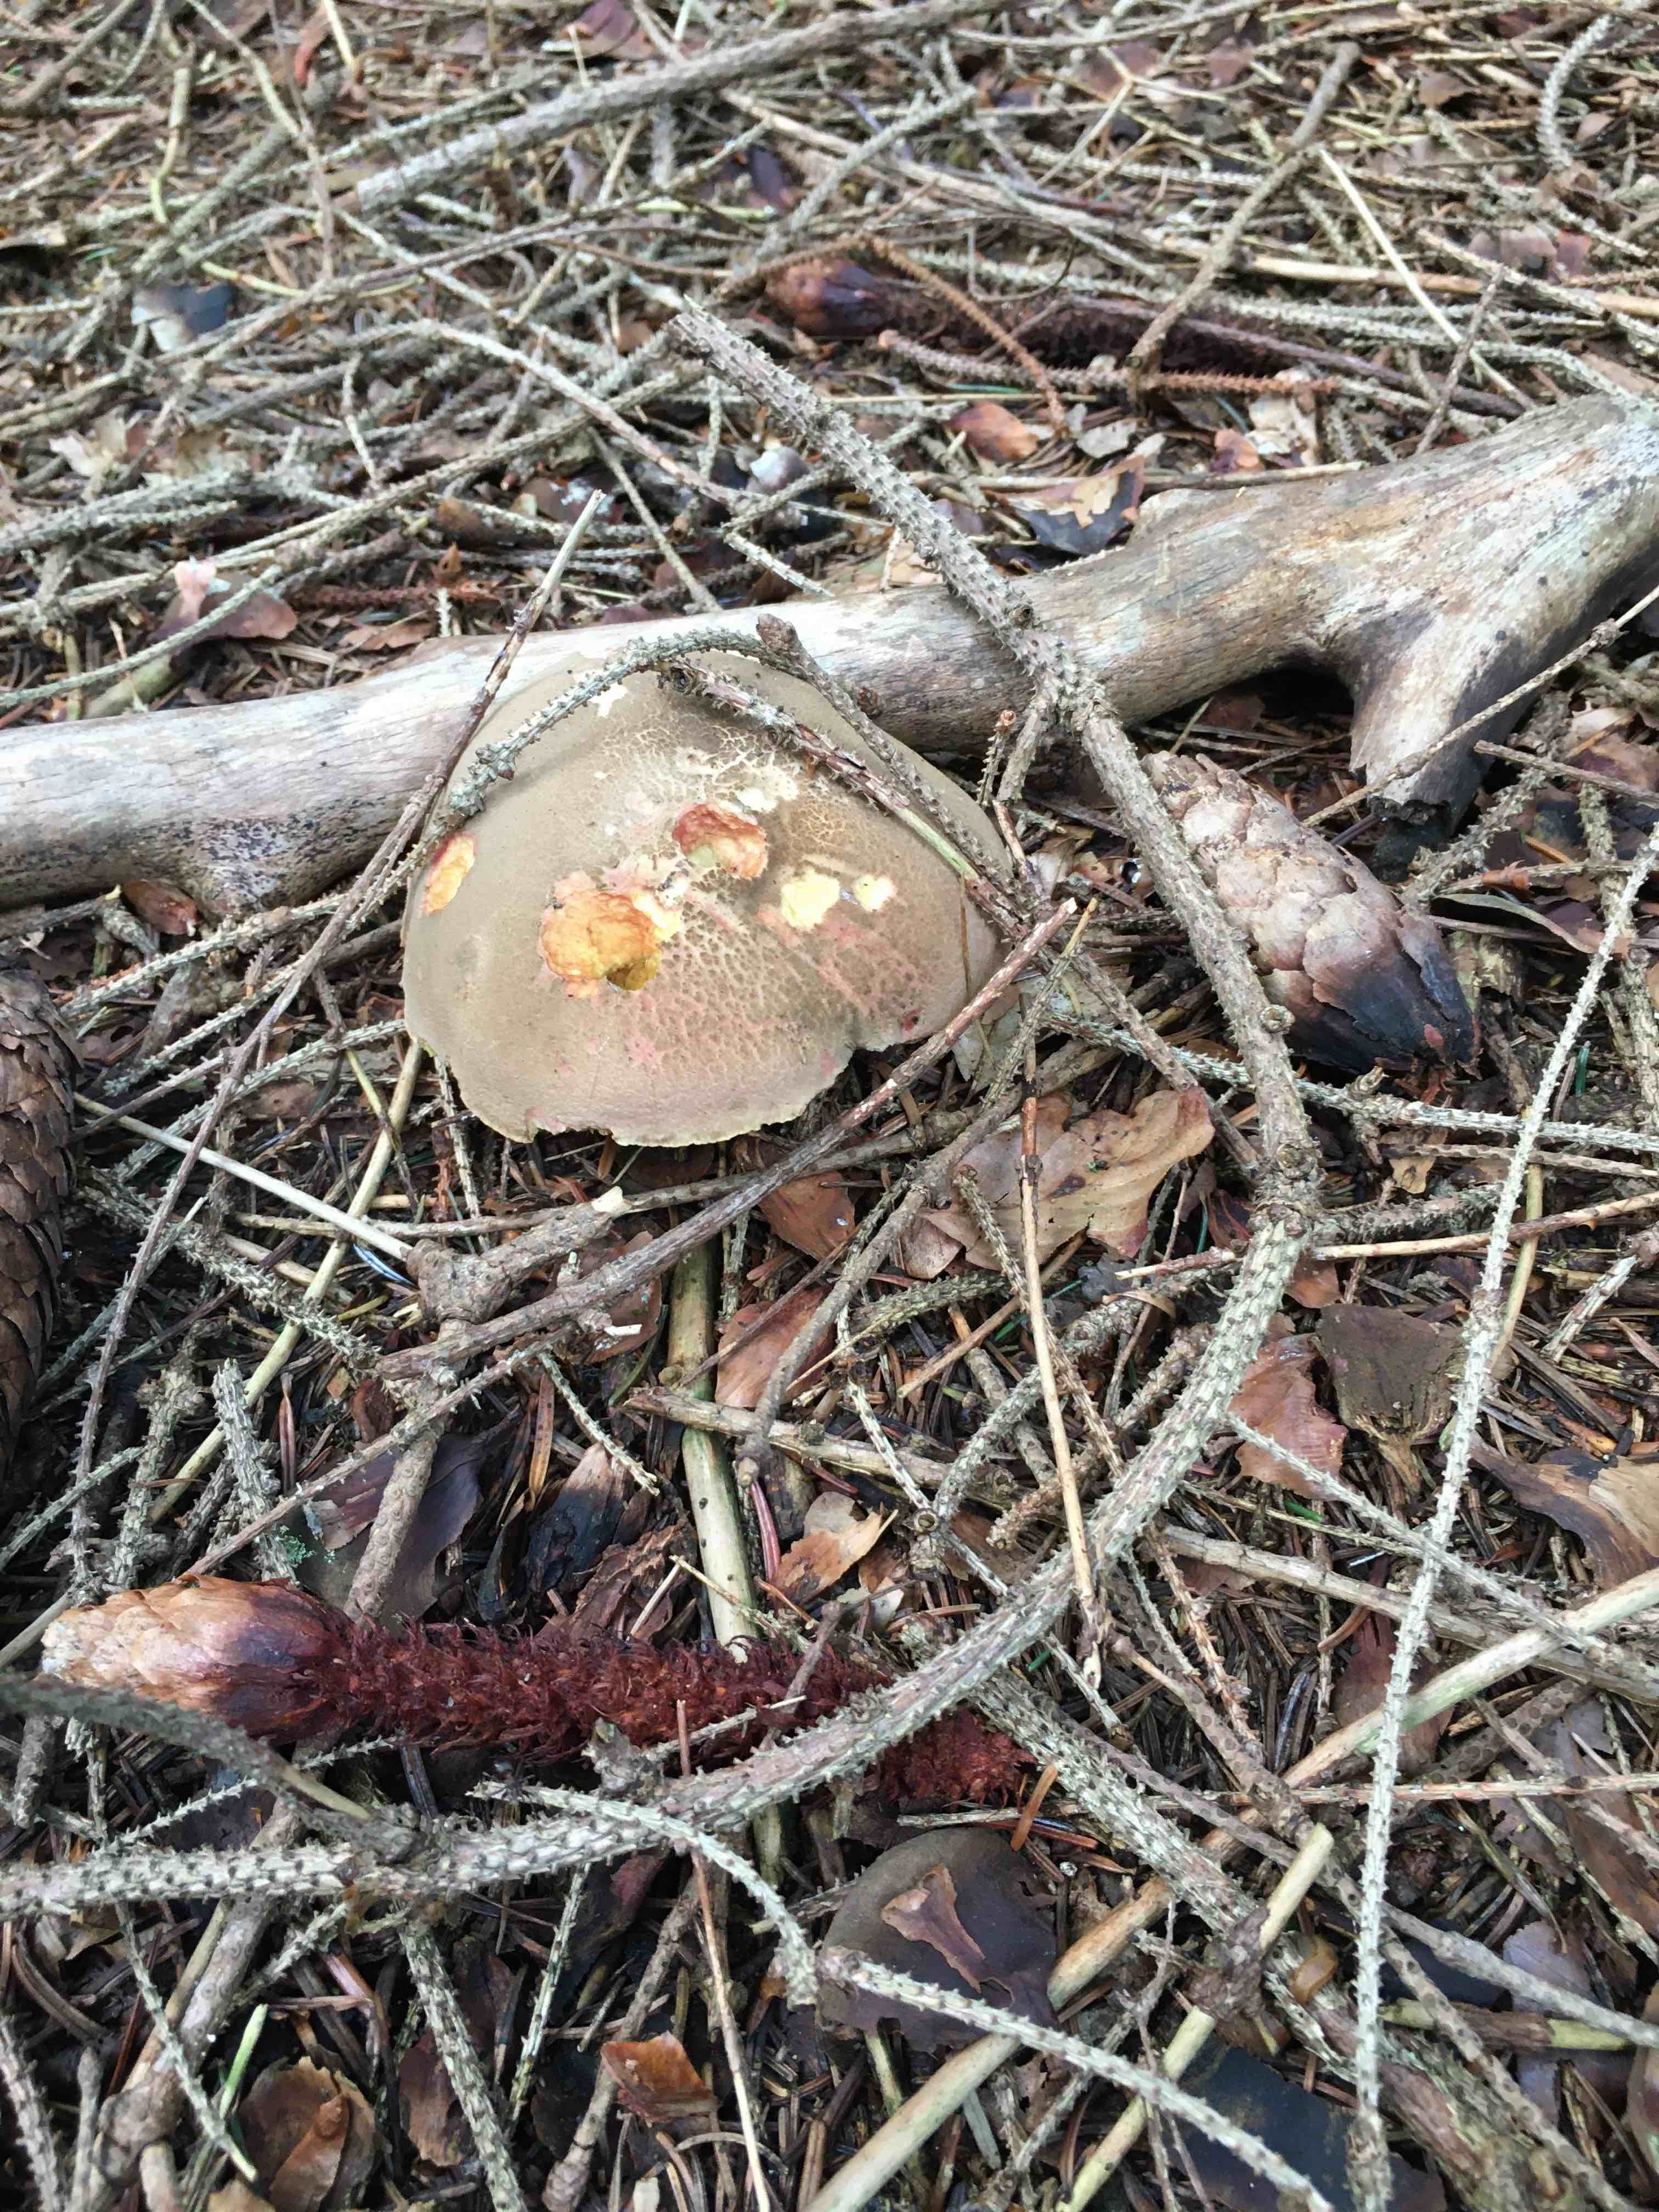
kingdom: Fungi
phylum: Basidiomycota
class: Agaricomycetes
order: Boletales
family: Boletaceae
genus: Xerocomellus
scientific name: Xerocomellus
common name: dværgrørhat
